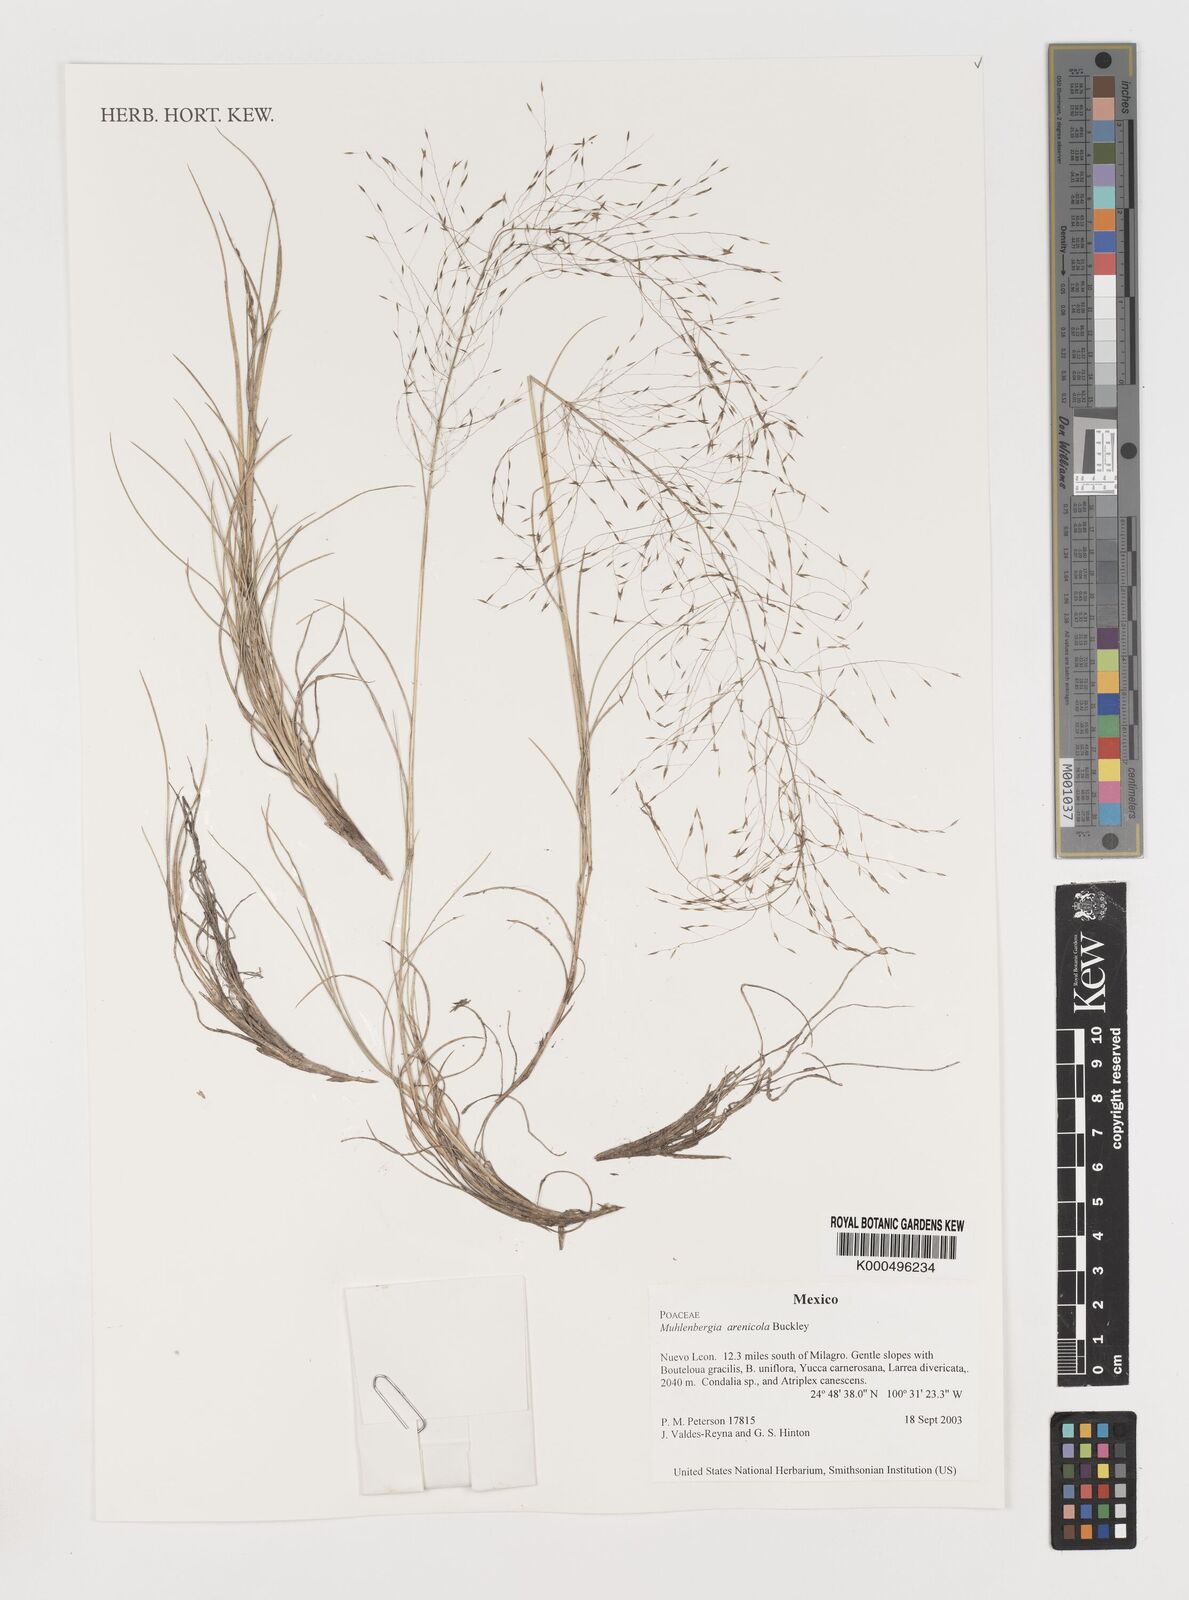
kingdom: Plantae
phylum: Tracheophyta
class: Liliopsida
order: Poales
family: Poaceae
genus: Muhlenbergia
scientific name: Muhlenbergia arenicola
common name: Sand muhly
